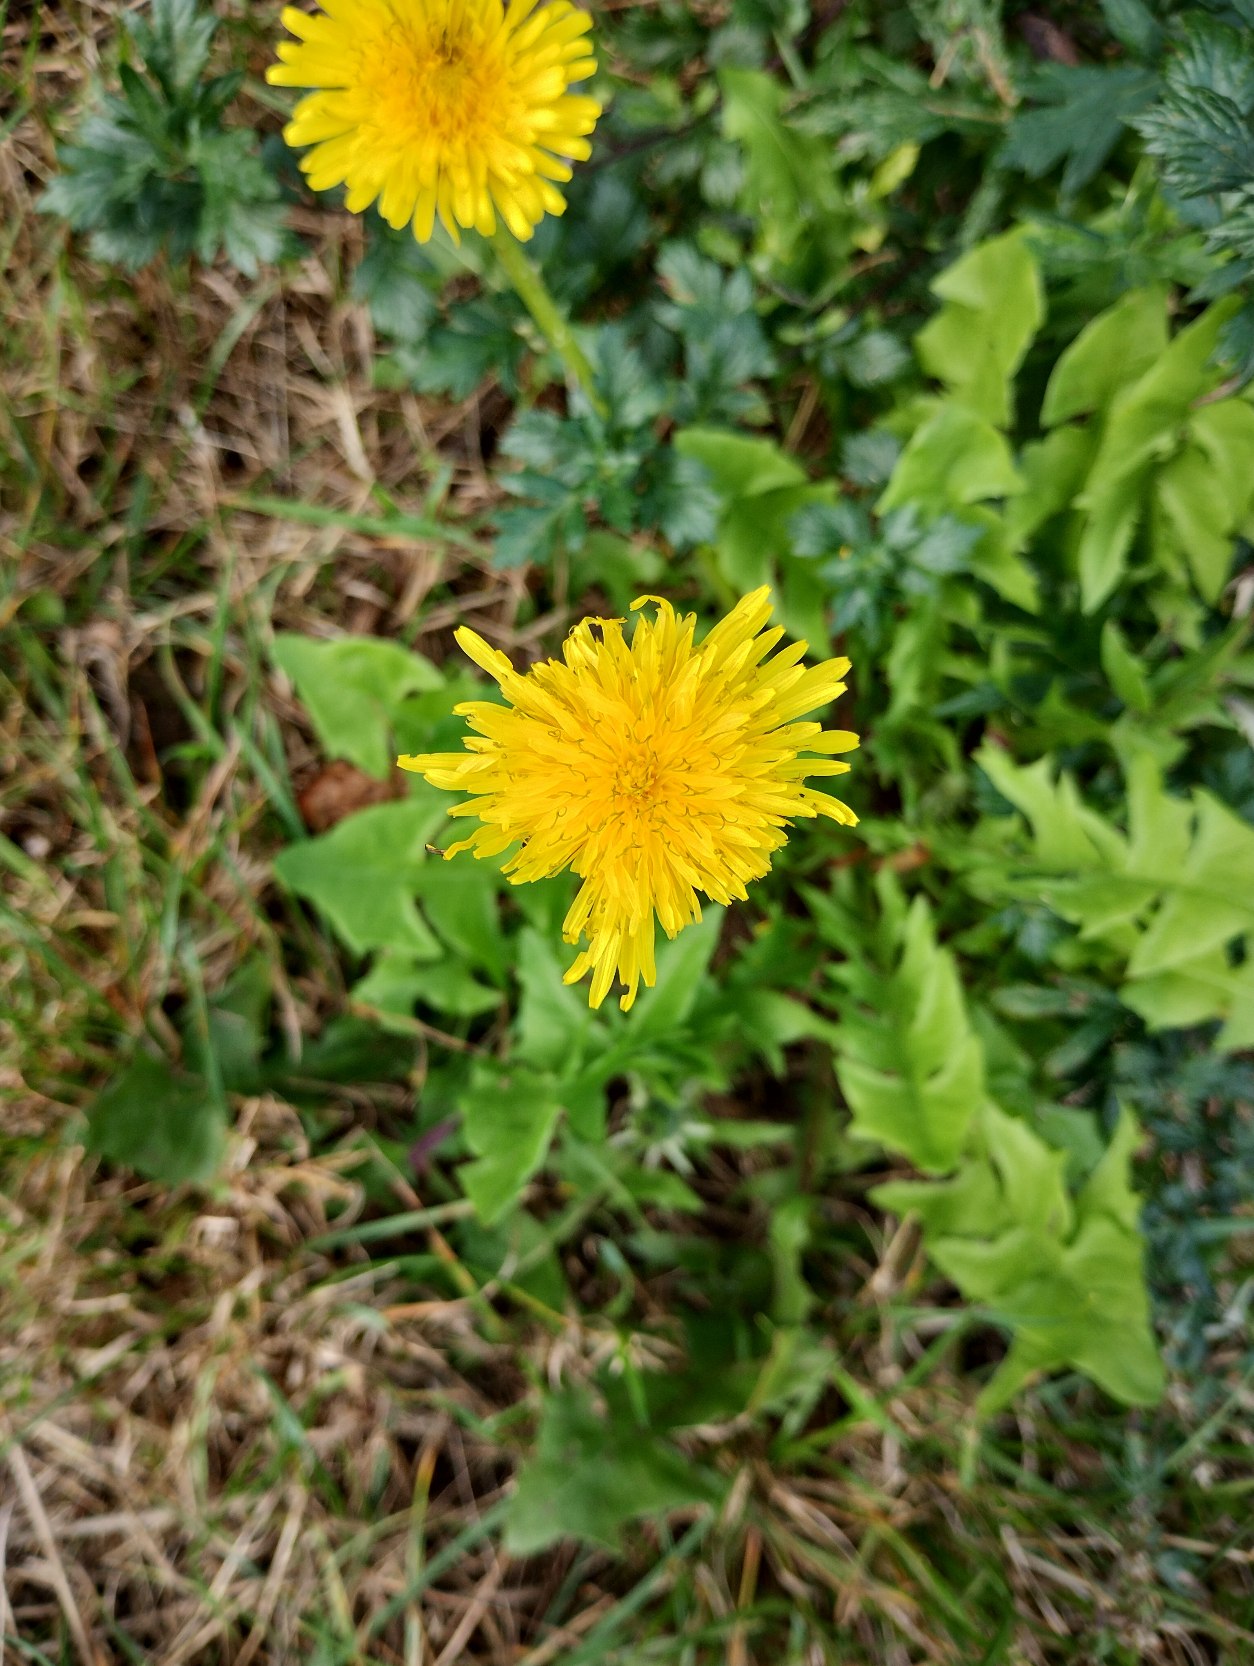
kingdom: Plantae
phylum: Tracheophyta
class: Magnoliopsida
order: Asterales
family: Asteraceae
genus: Taraxacum
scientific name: Taraxacum
